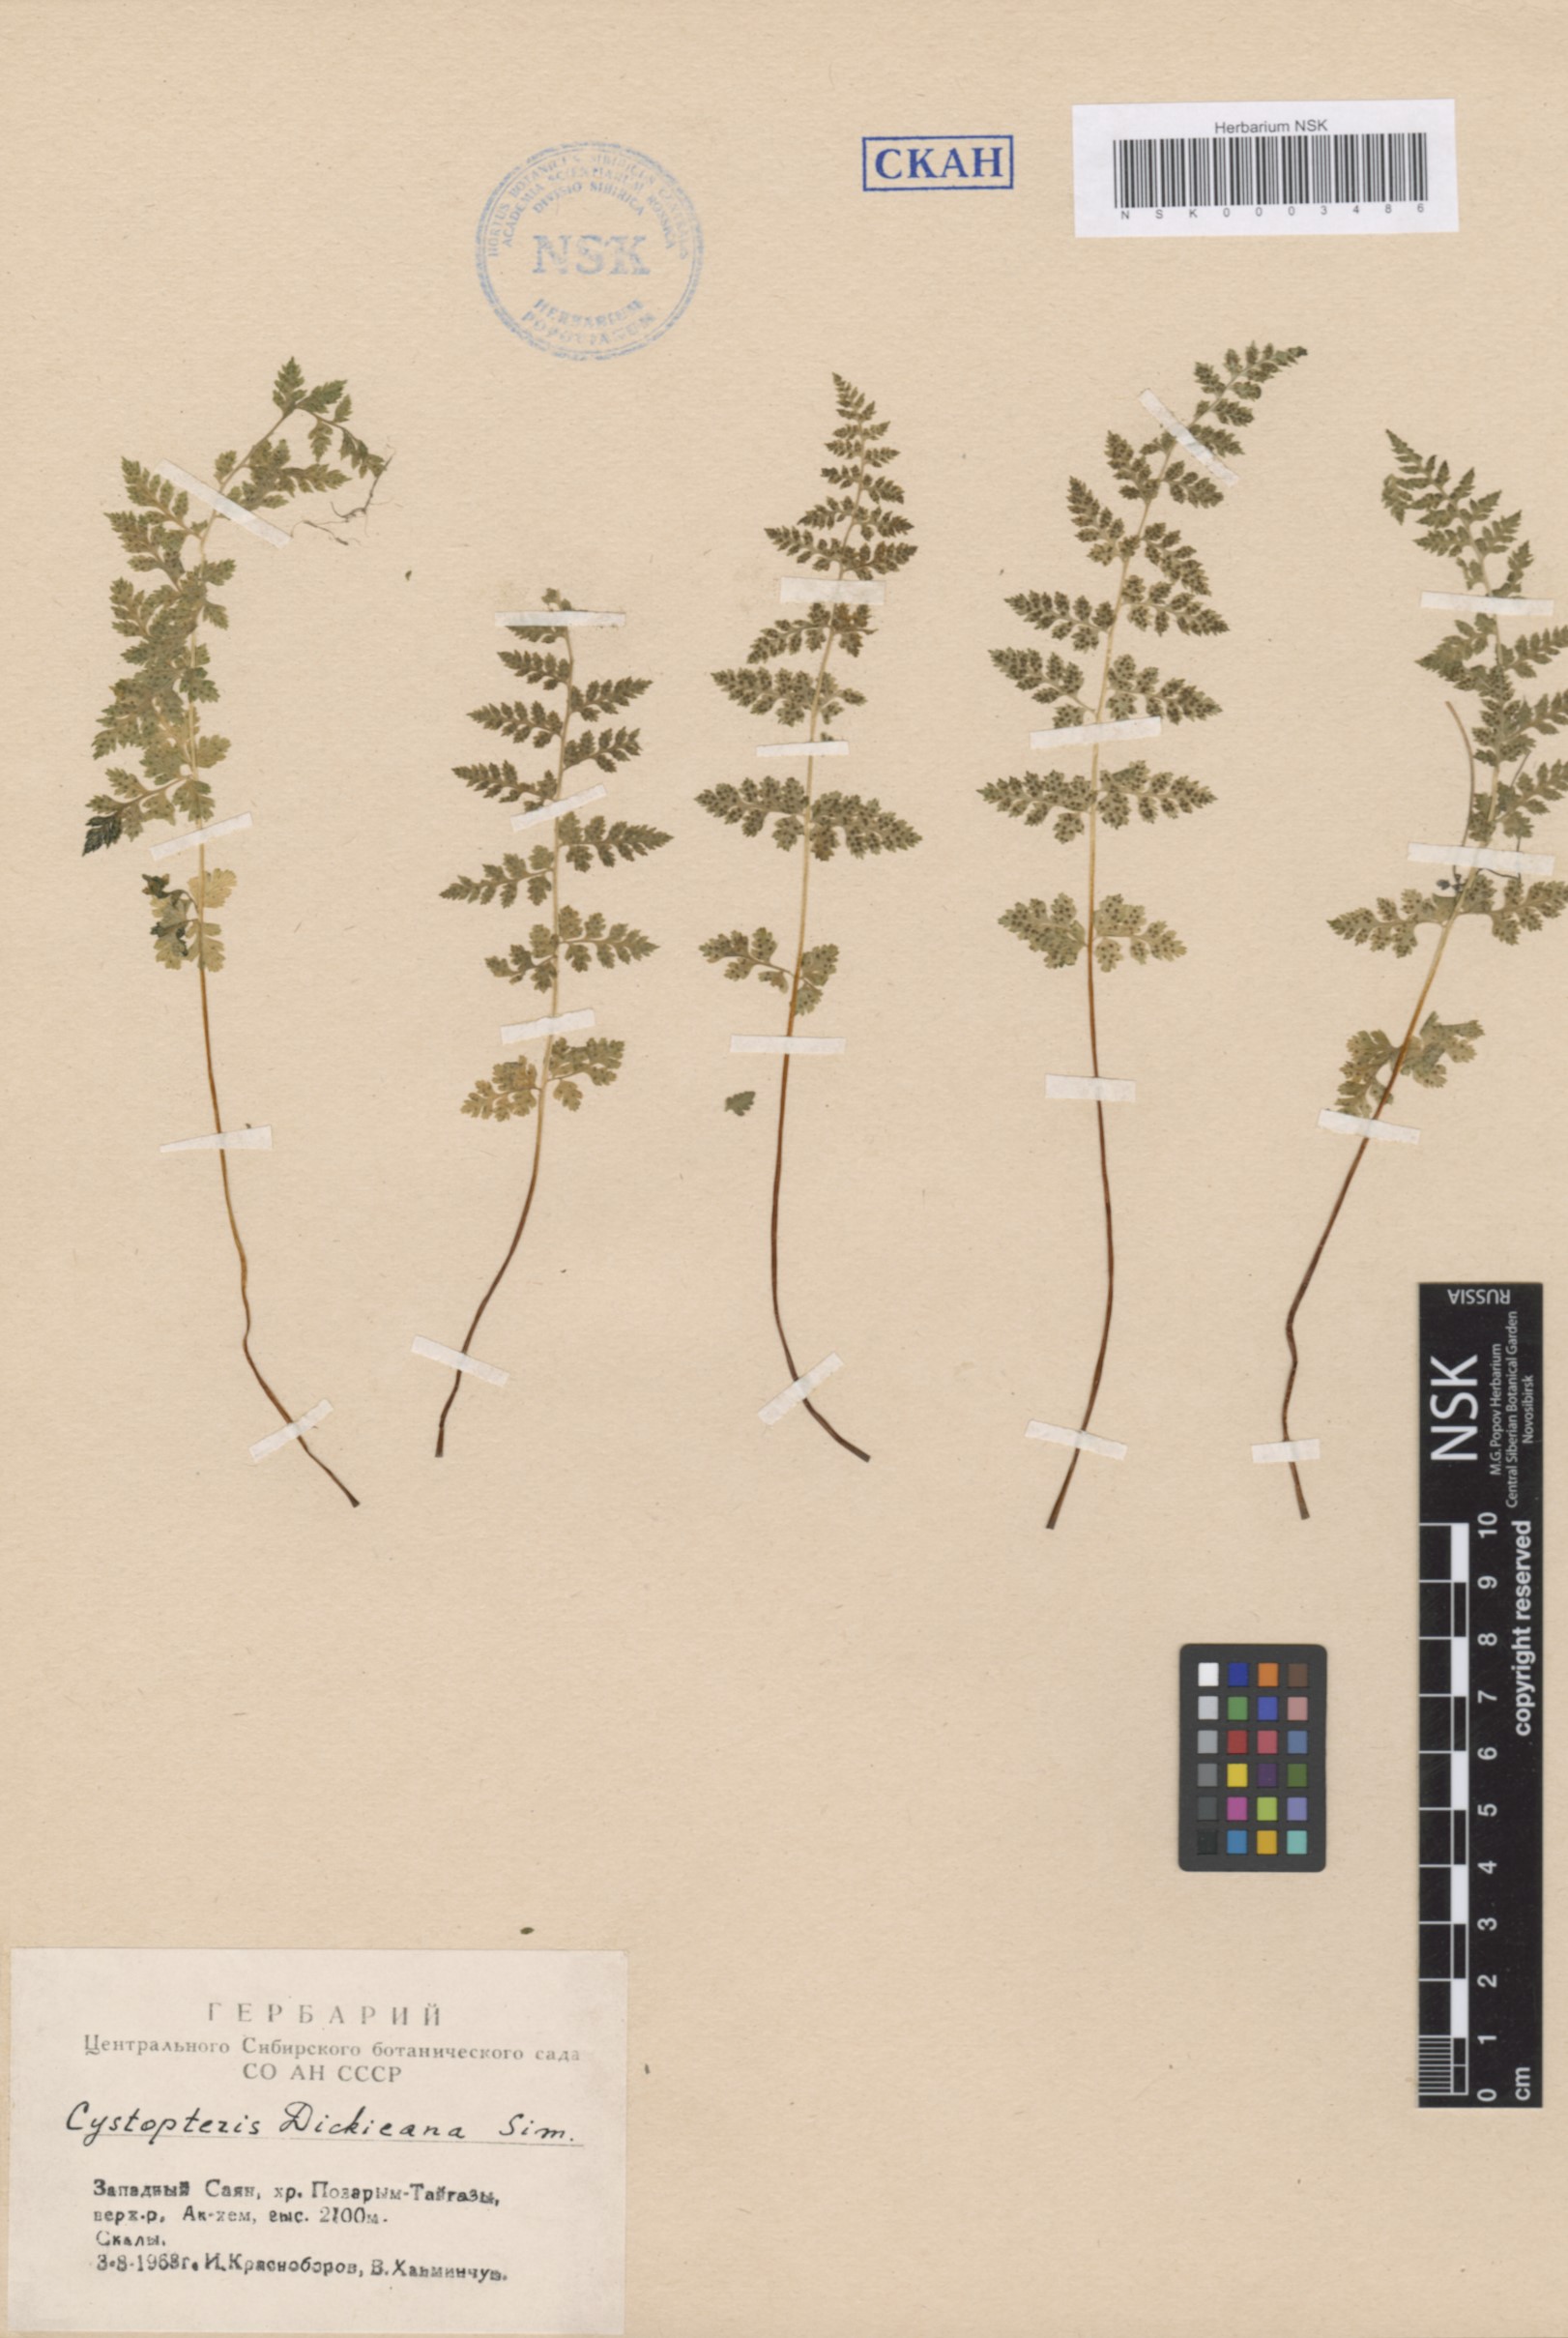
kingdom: Plantae
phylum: Tracheophyta
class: Polypodiopsida
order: Polypodiales
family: Cystopteridaceae
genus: Cystopteris
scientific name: Cystopteris dickieana
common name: Dickie's bladder-fern
